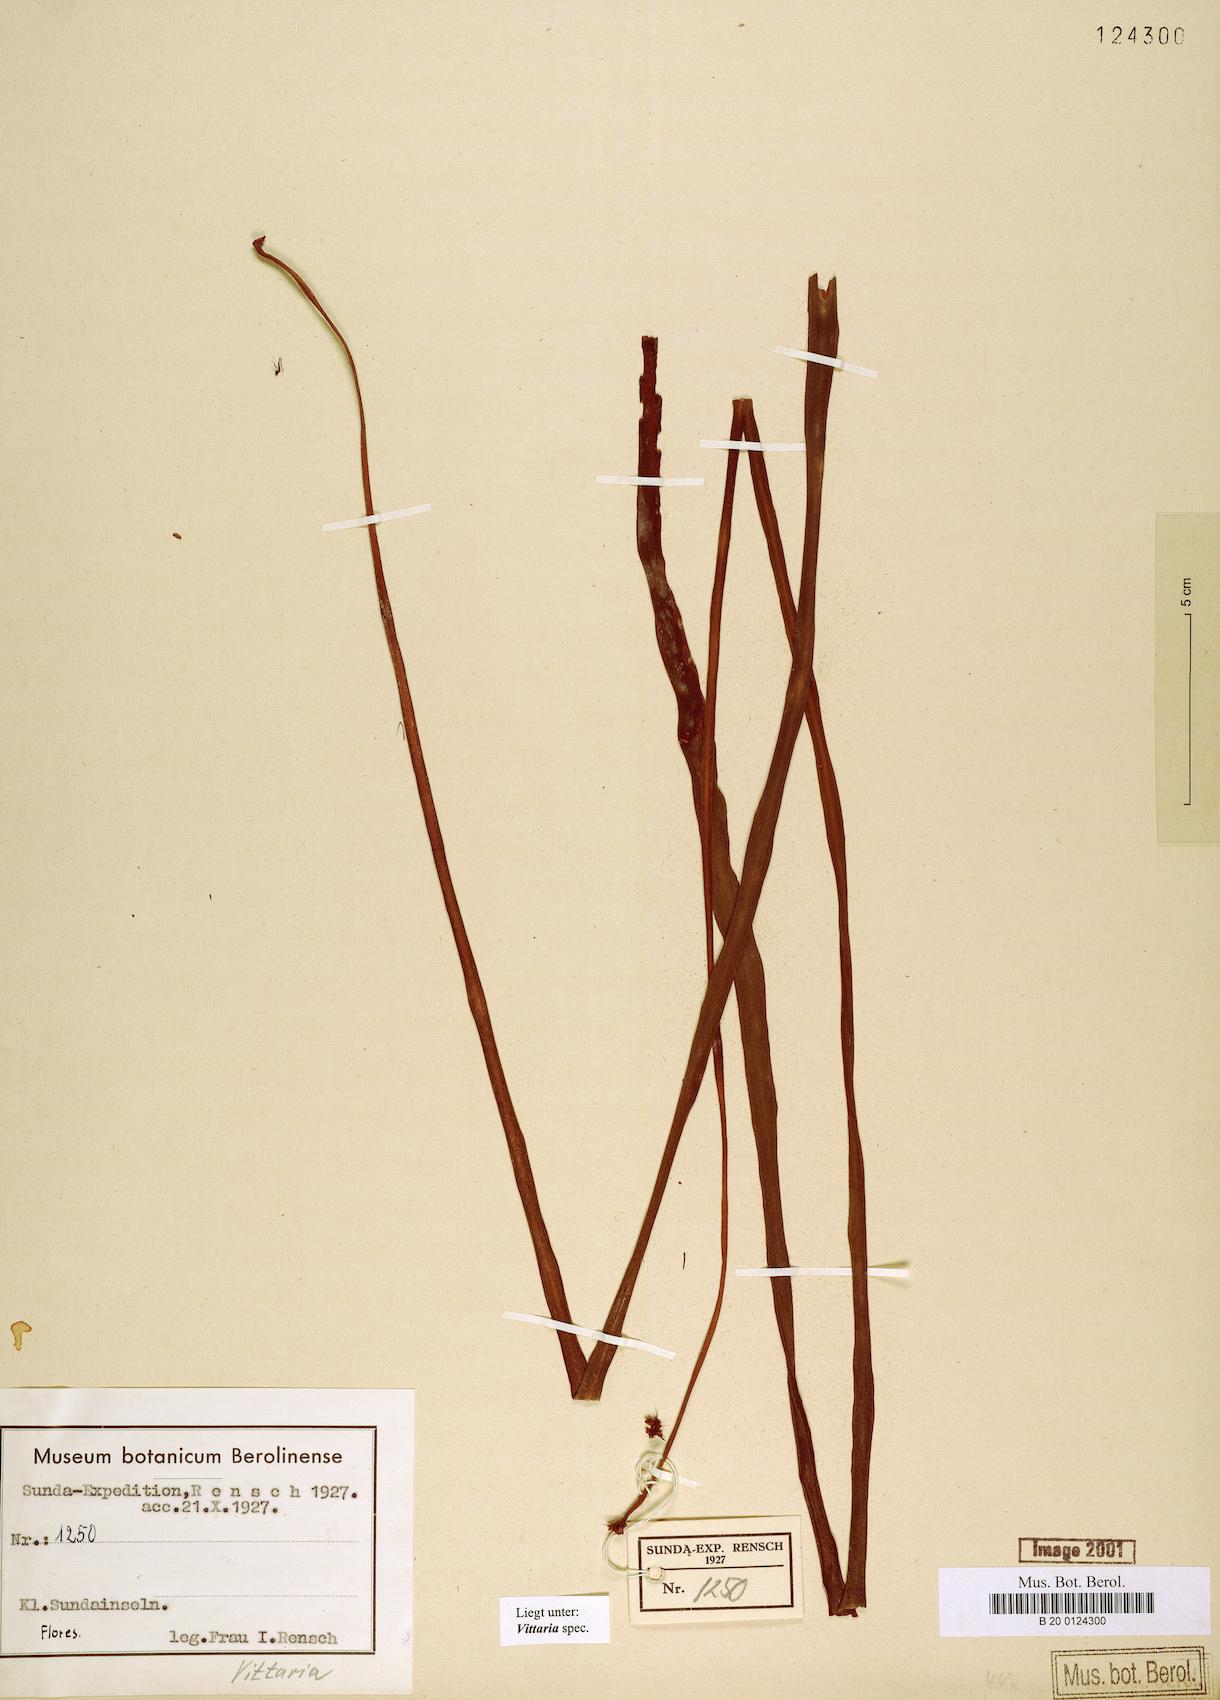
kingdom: Plantae
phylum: Tracheophyta
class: Polypodiopsida
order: Polypodiales
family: Pteridaceae
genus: Vittaria
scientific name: Vittaria
